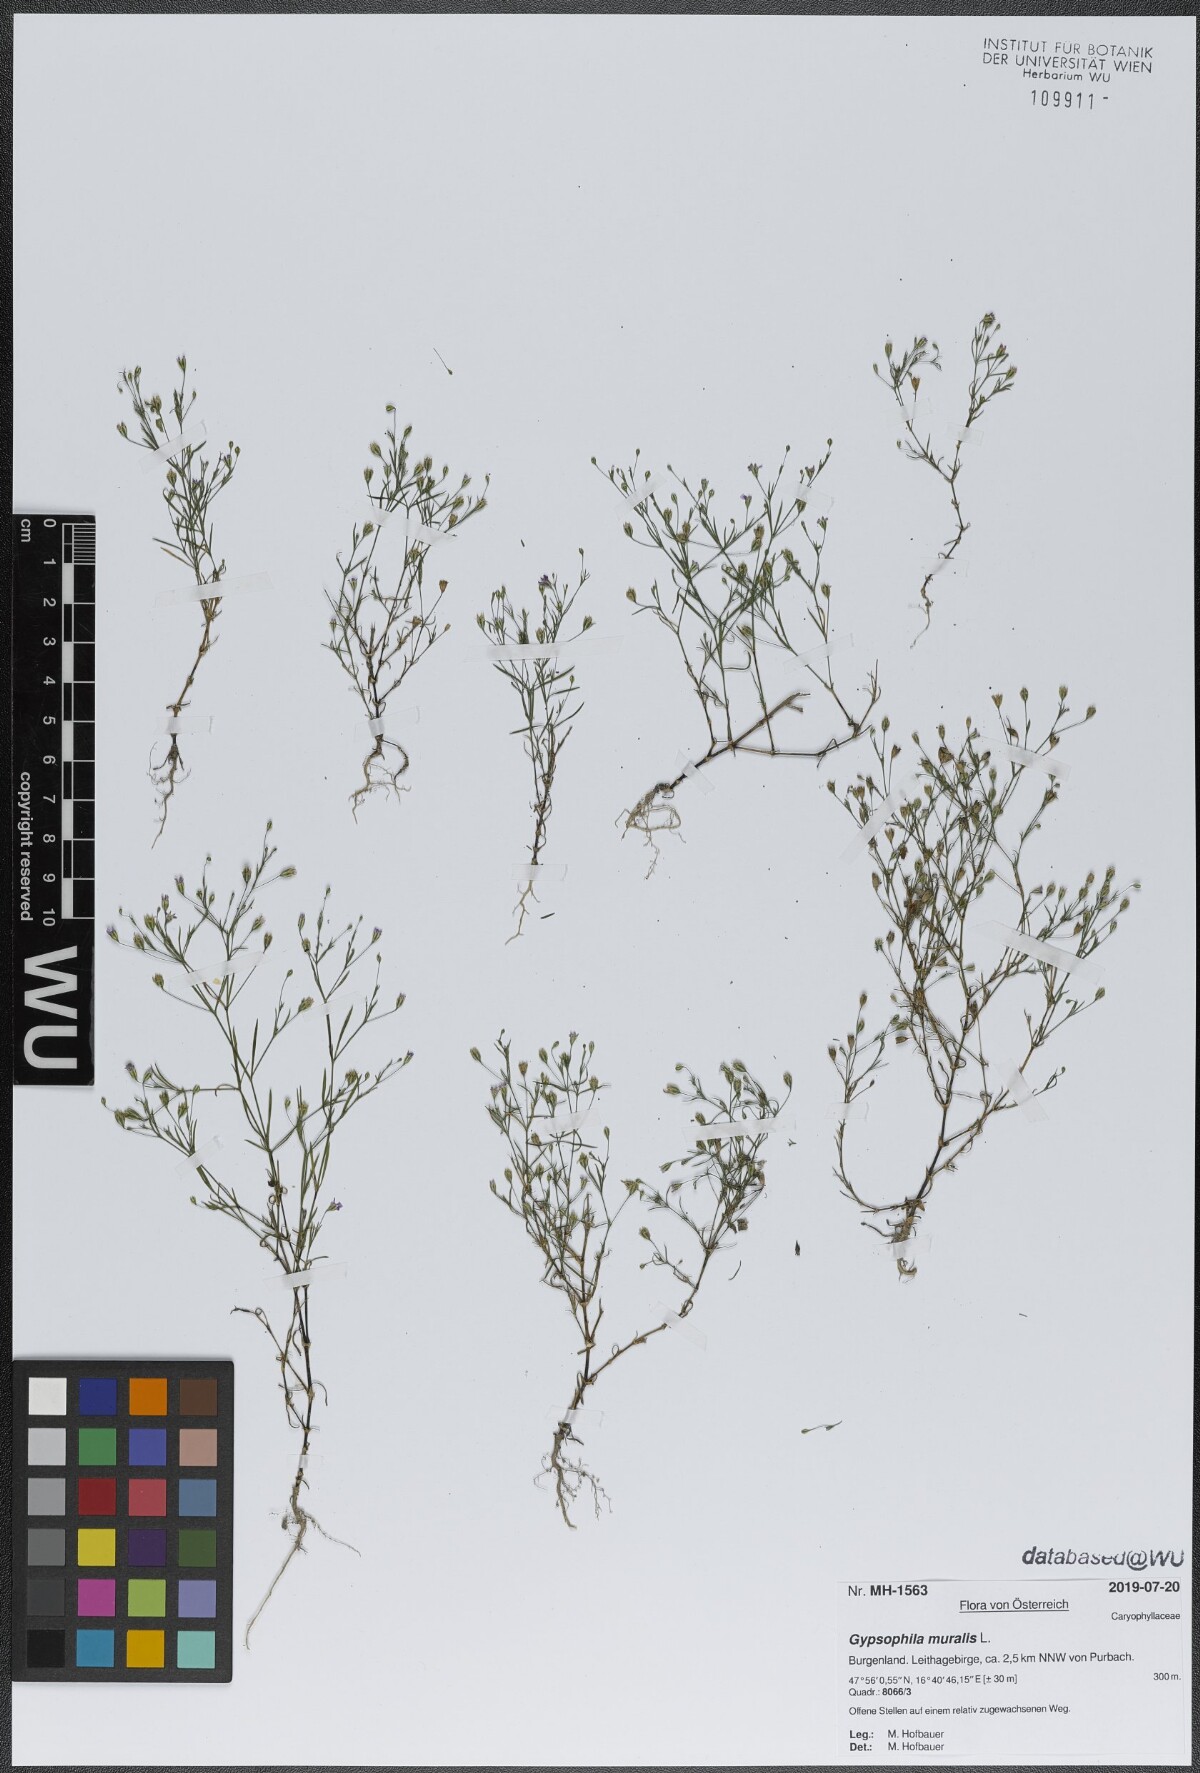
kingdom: Plantae
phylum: Tracheophyta
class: Magnoliopsida
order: Caryophyllales
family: Caryophyllaceae
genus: Psammophiliella
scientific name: Psammophiliella muralis
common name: Cushion baby's-breath
